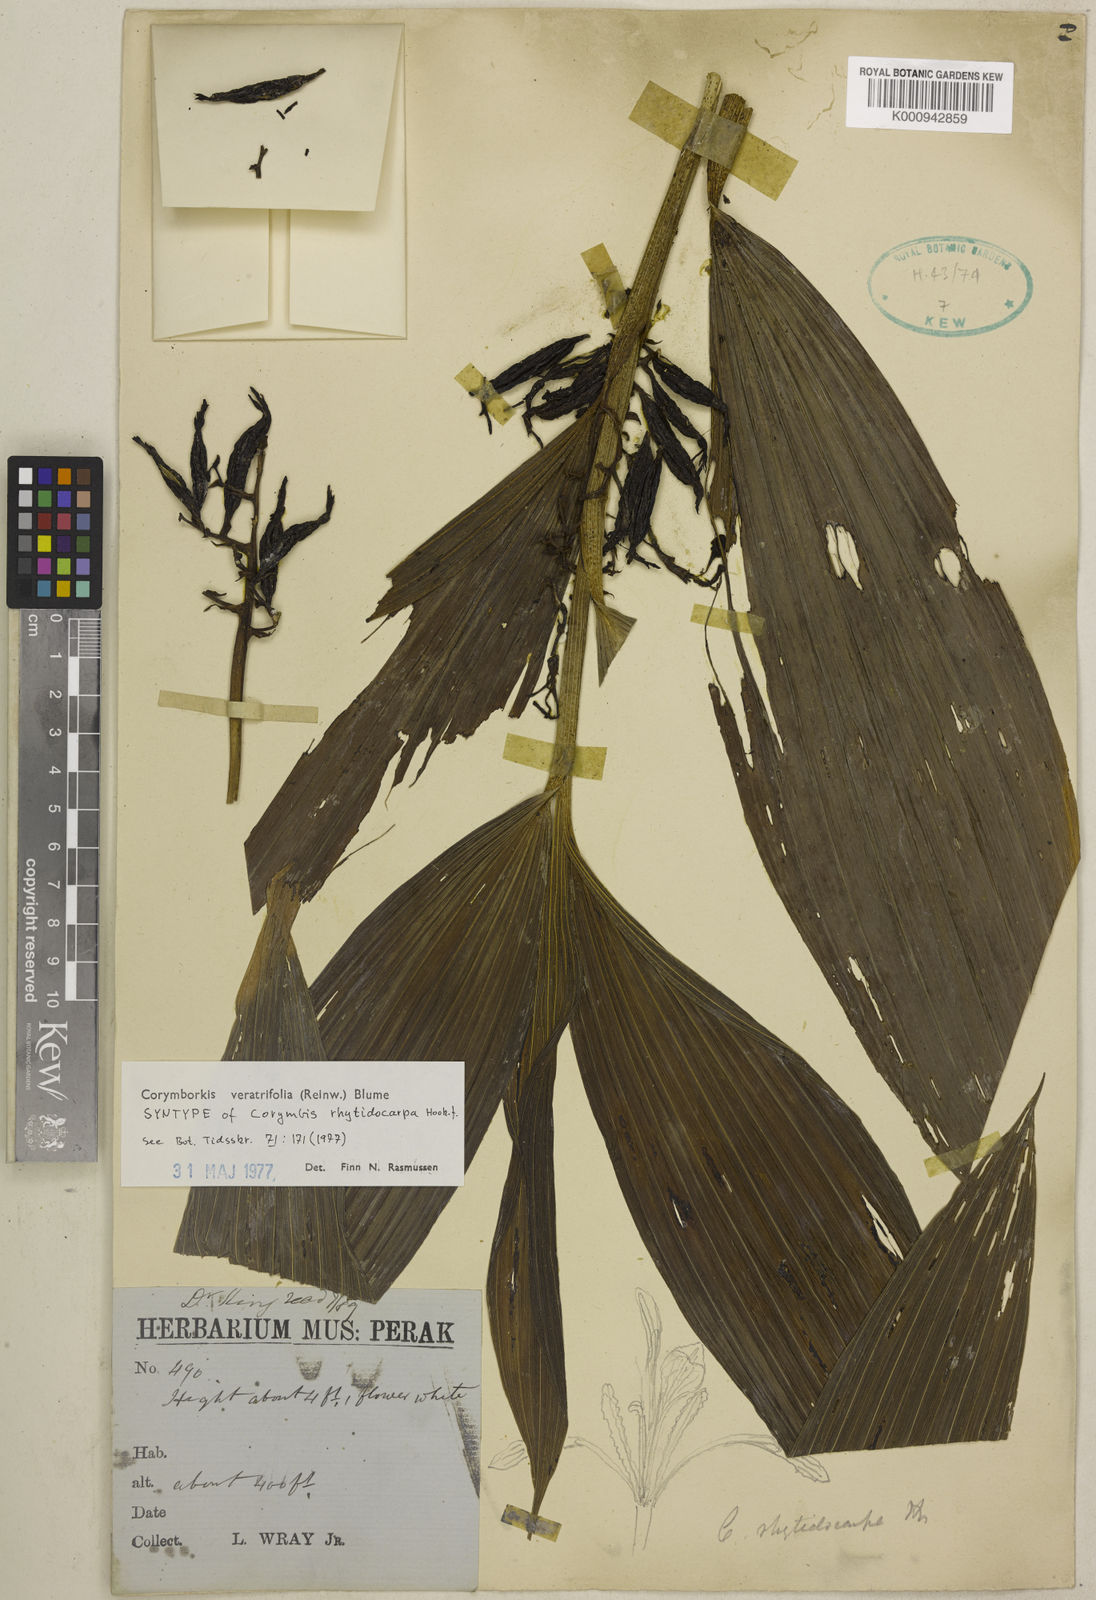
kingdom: Plantae
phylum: Tracheophyta
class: Liliopsida
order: Asparagales
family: Orchidaceae
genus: Corymborkis
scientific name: Corymborkis veratrifolia
